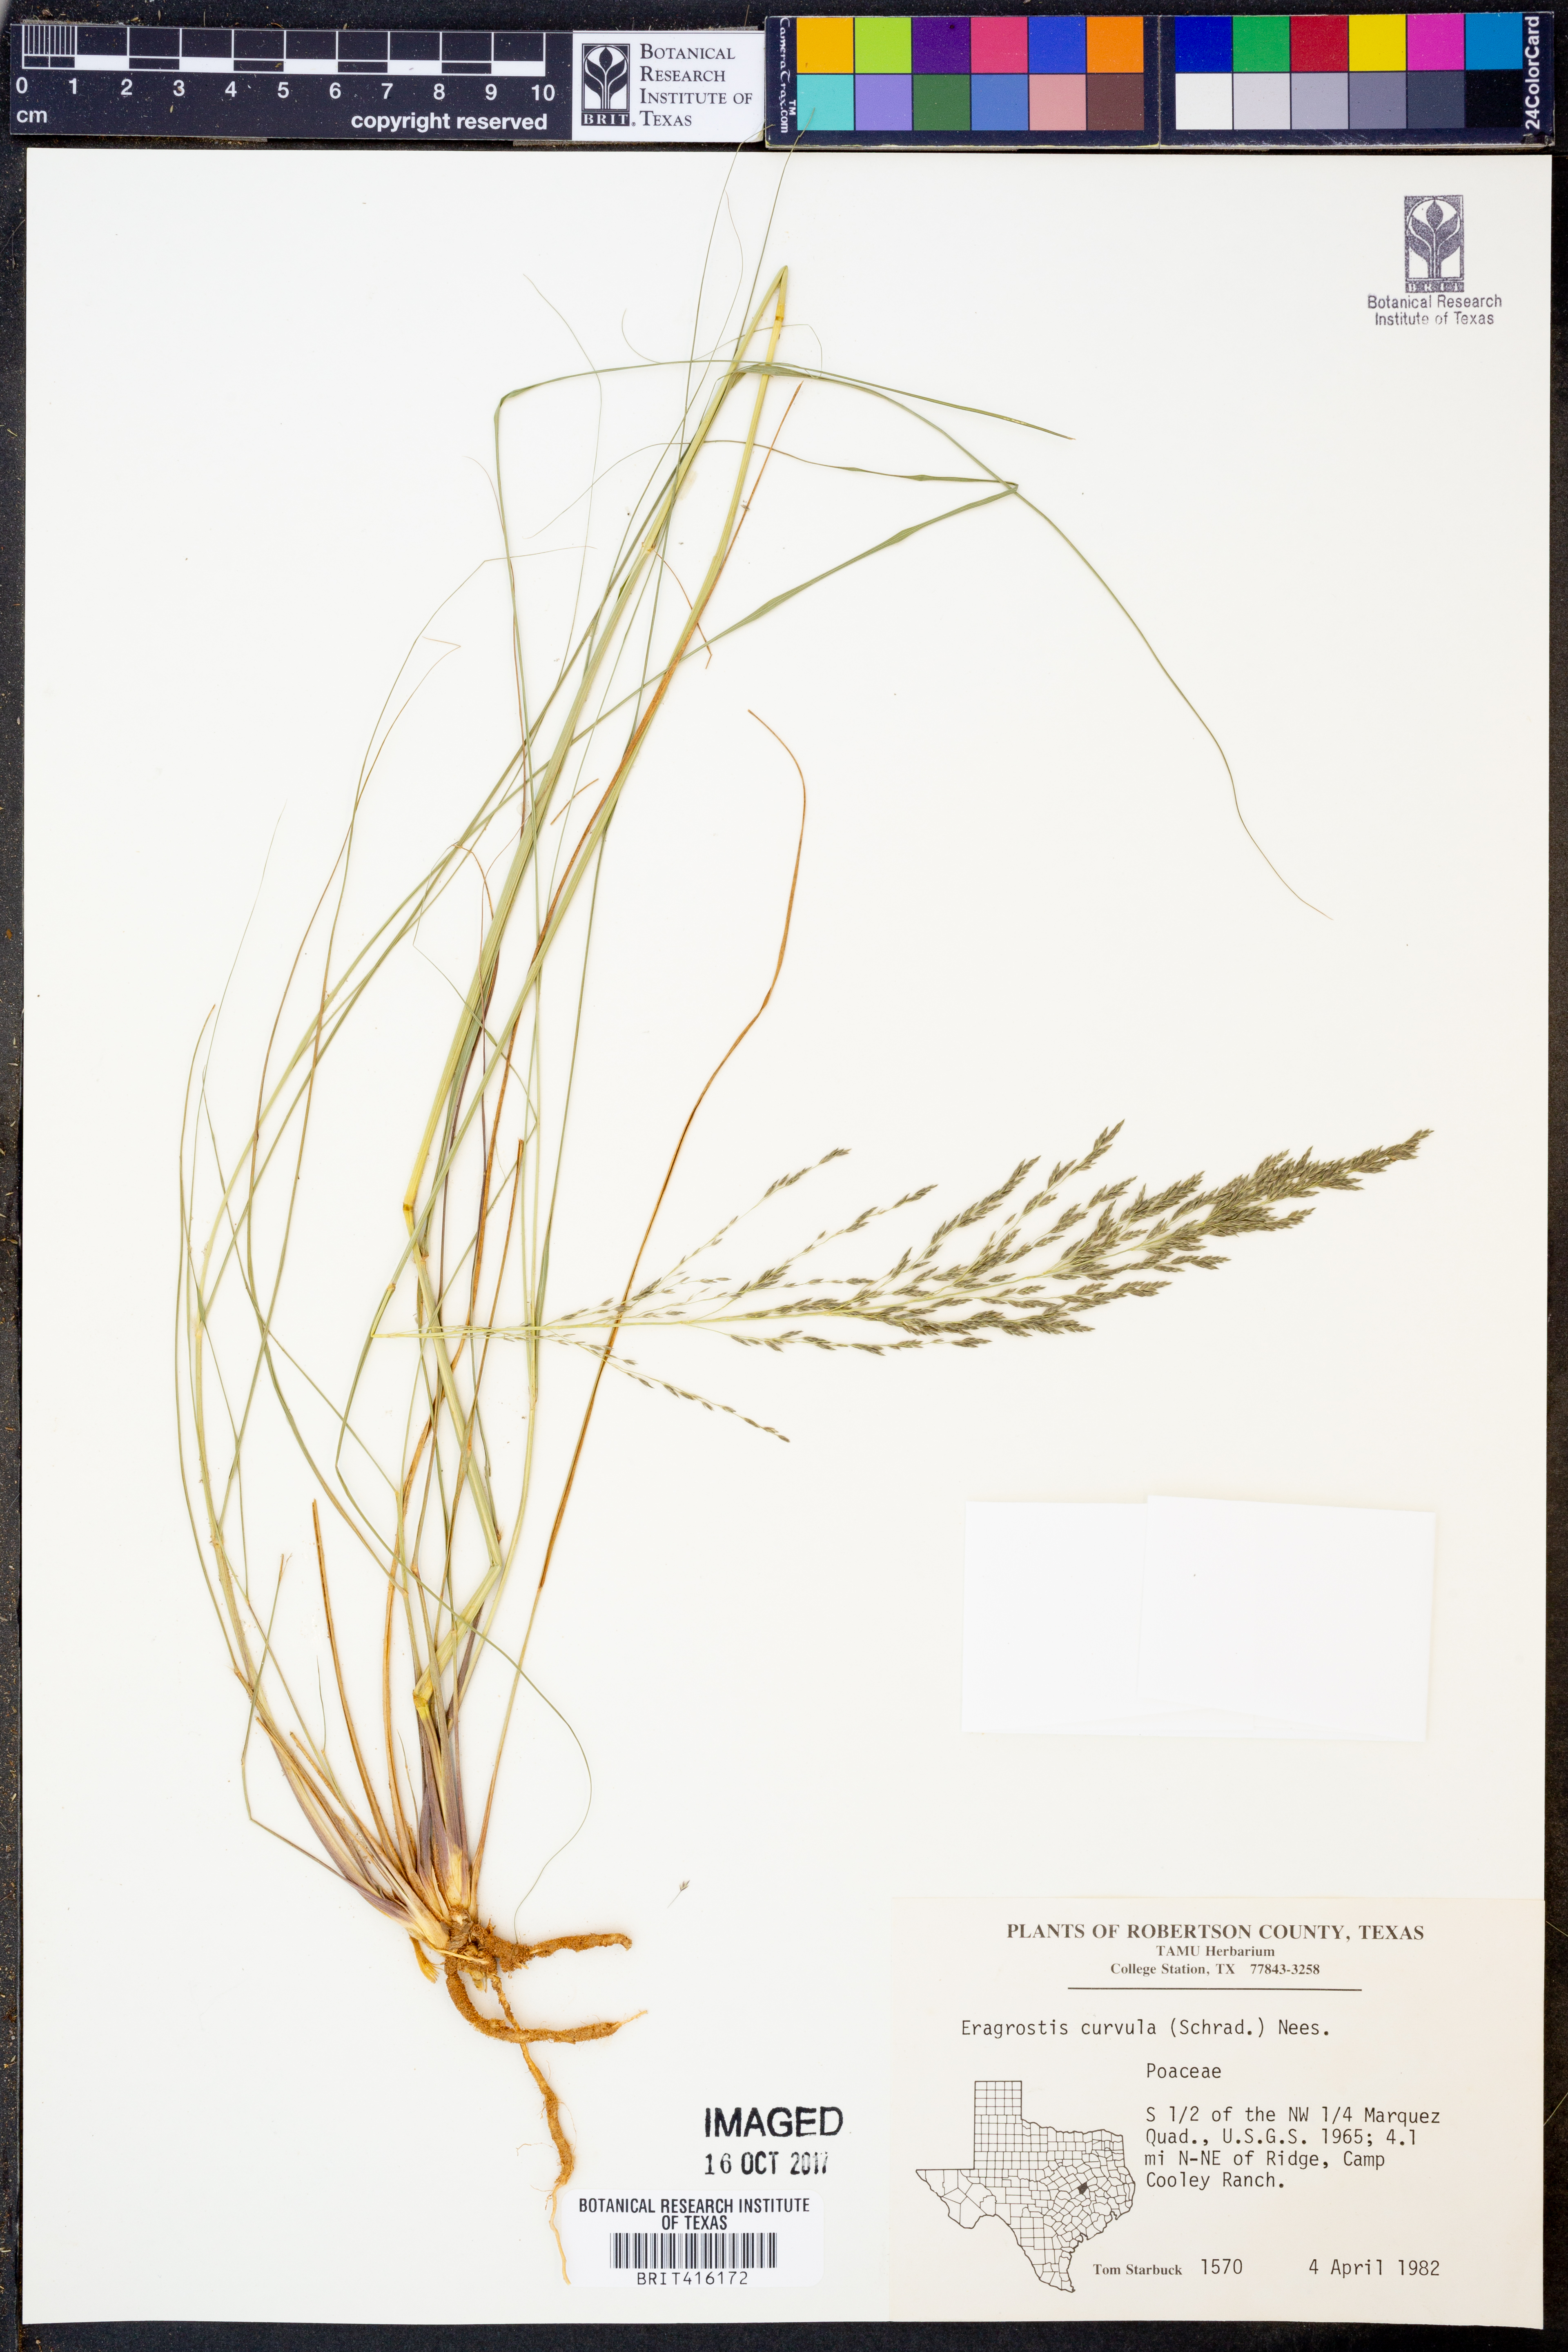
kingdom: Plantae
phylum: Tracheophyta
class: Liliopsida
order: Poales
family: Poaceae
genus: Eragrostis
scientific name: Eragrostis curvula
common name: African love-grass
